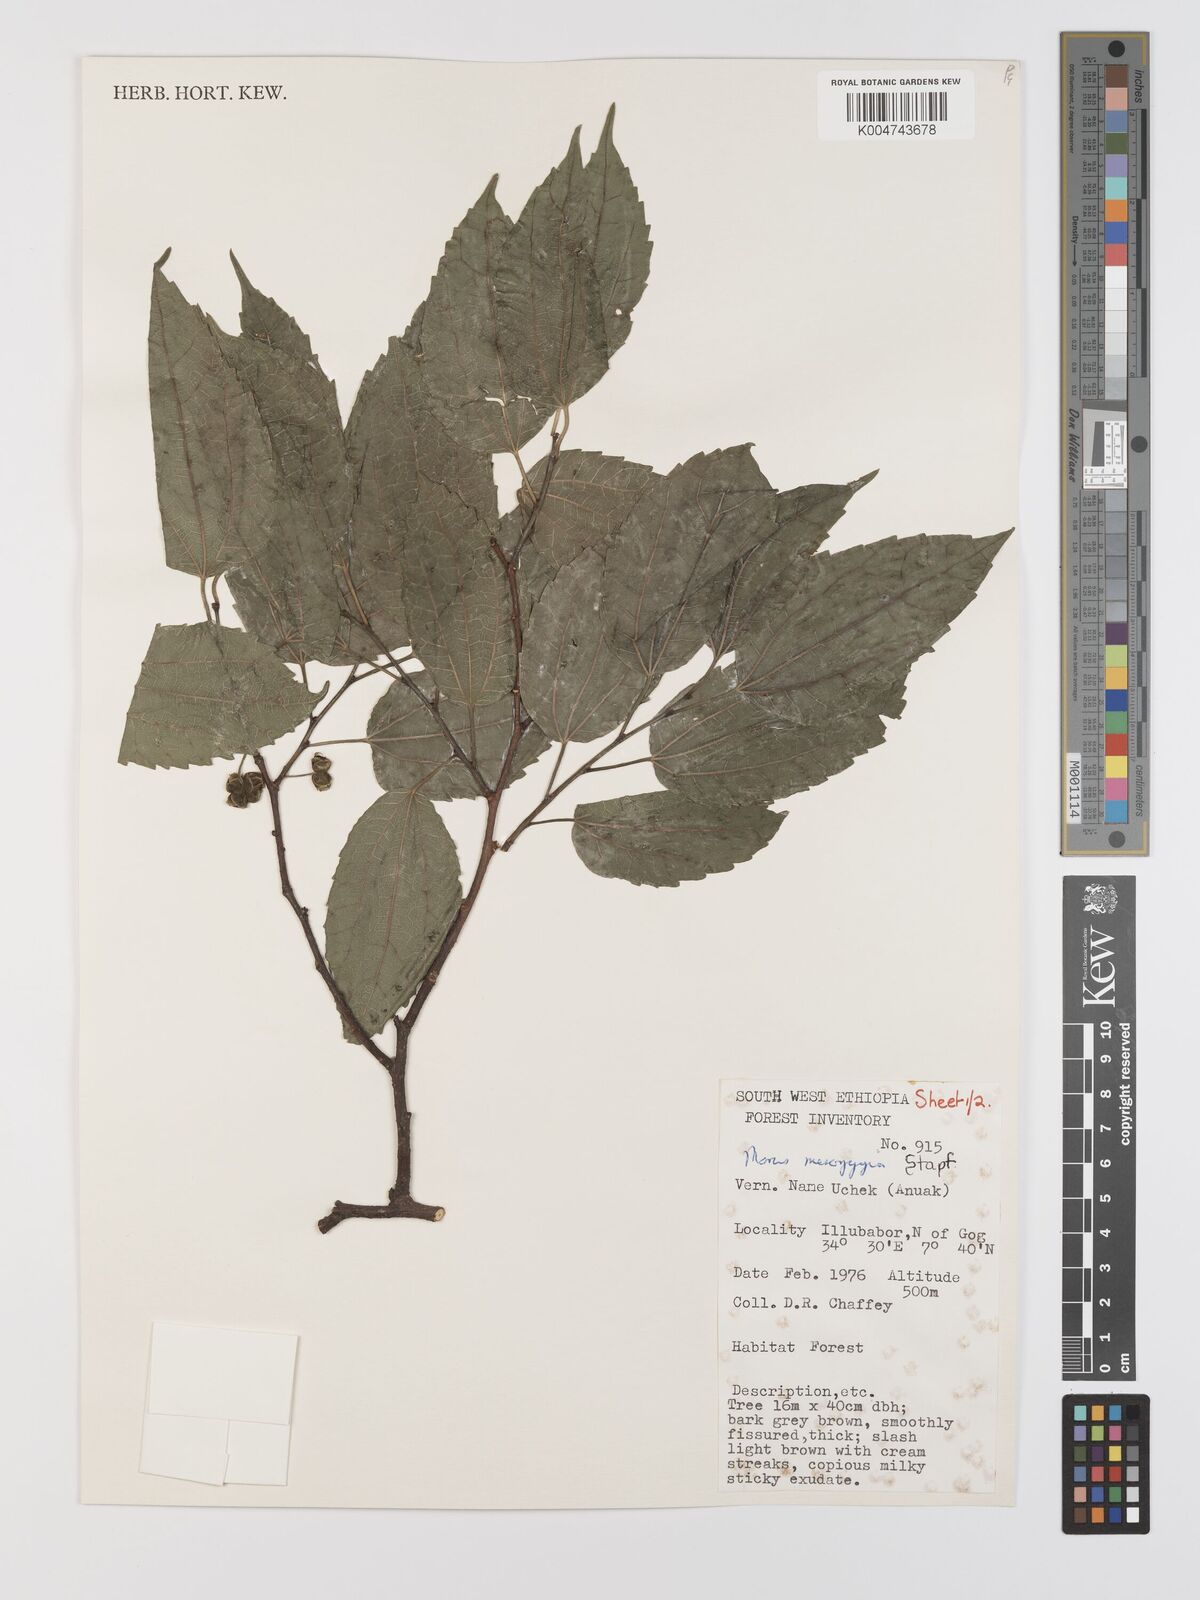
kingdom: Plantae
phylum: Tracheophyta
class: Magnoliopsida
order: Rosales
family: Moraceae
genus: Afromorus
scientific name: Afromorus mesozygia
